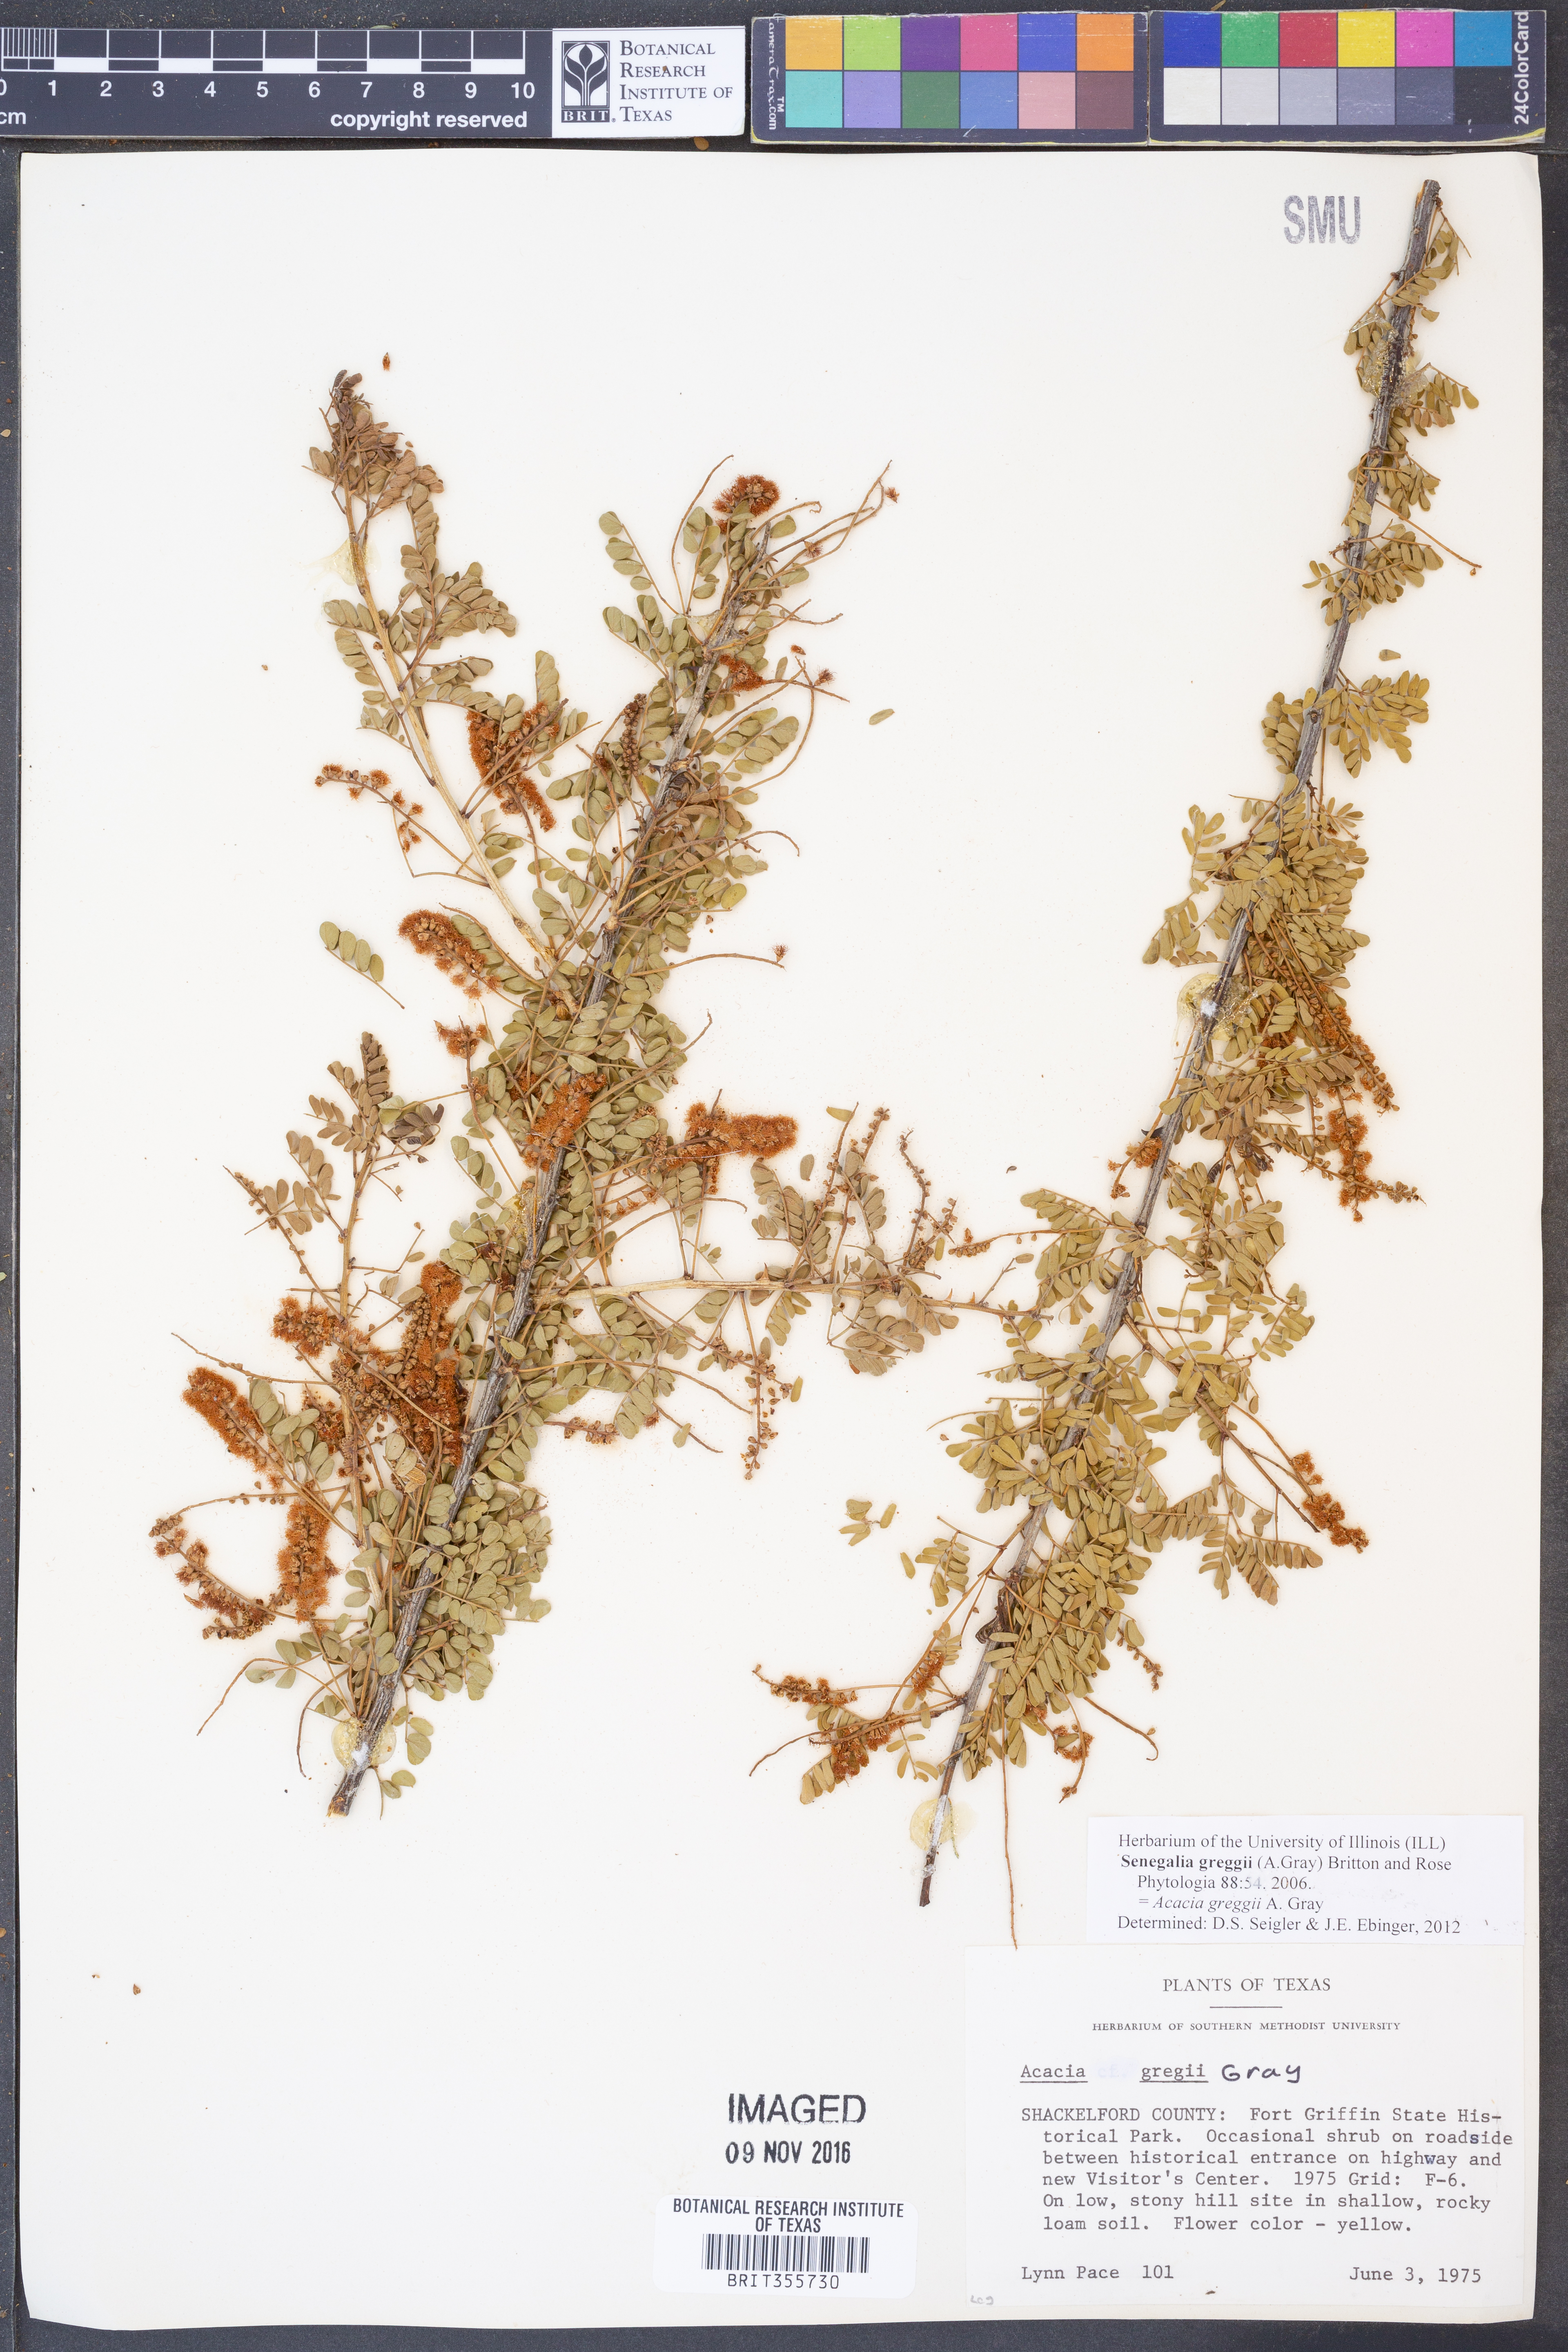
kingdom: Plantae
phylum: Tracheophyta
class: Magnoliopsida
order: Fabales
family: Fabaceae
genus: Senegalia
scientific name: Senegalia greggii
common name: Texas-mimosa
